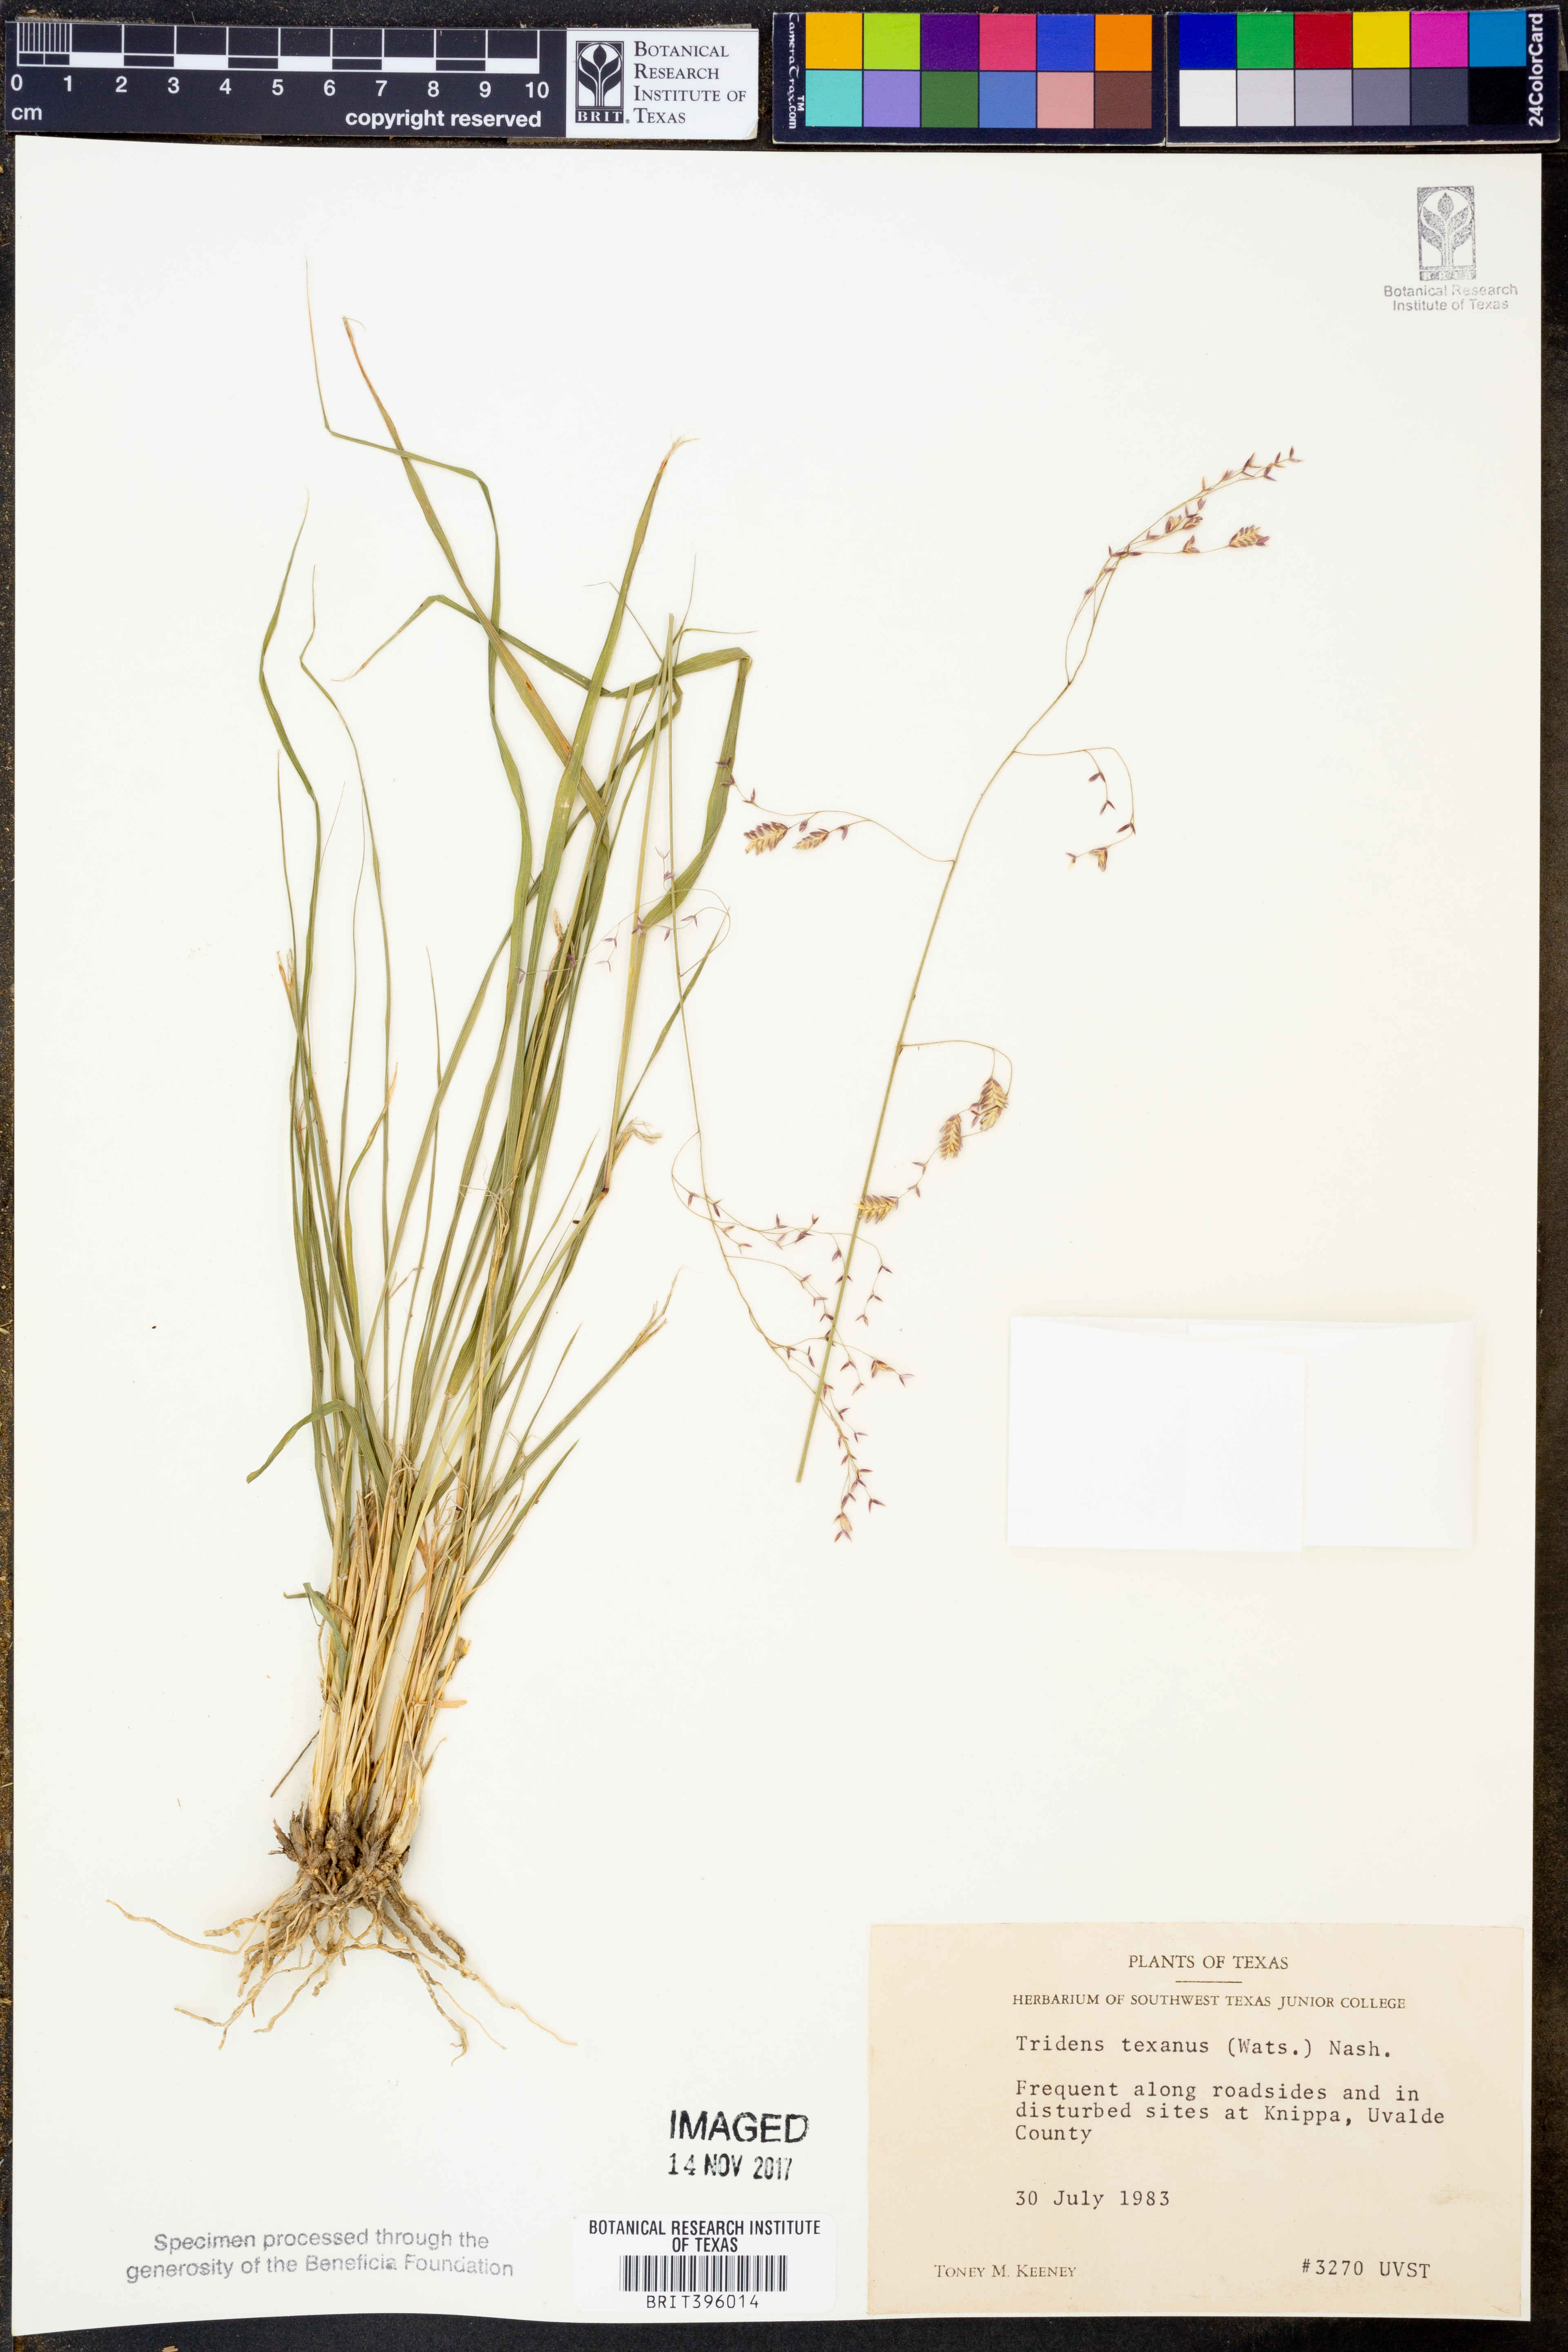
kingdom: Plantae
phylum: Tracheophyta
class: Liliopsida
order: Poales
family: Poaceae
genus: Tridens
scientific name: Tridens texanus
